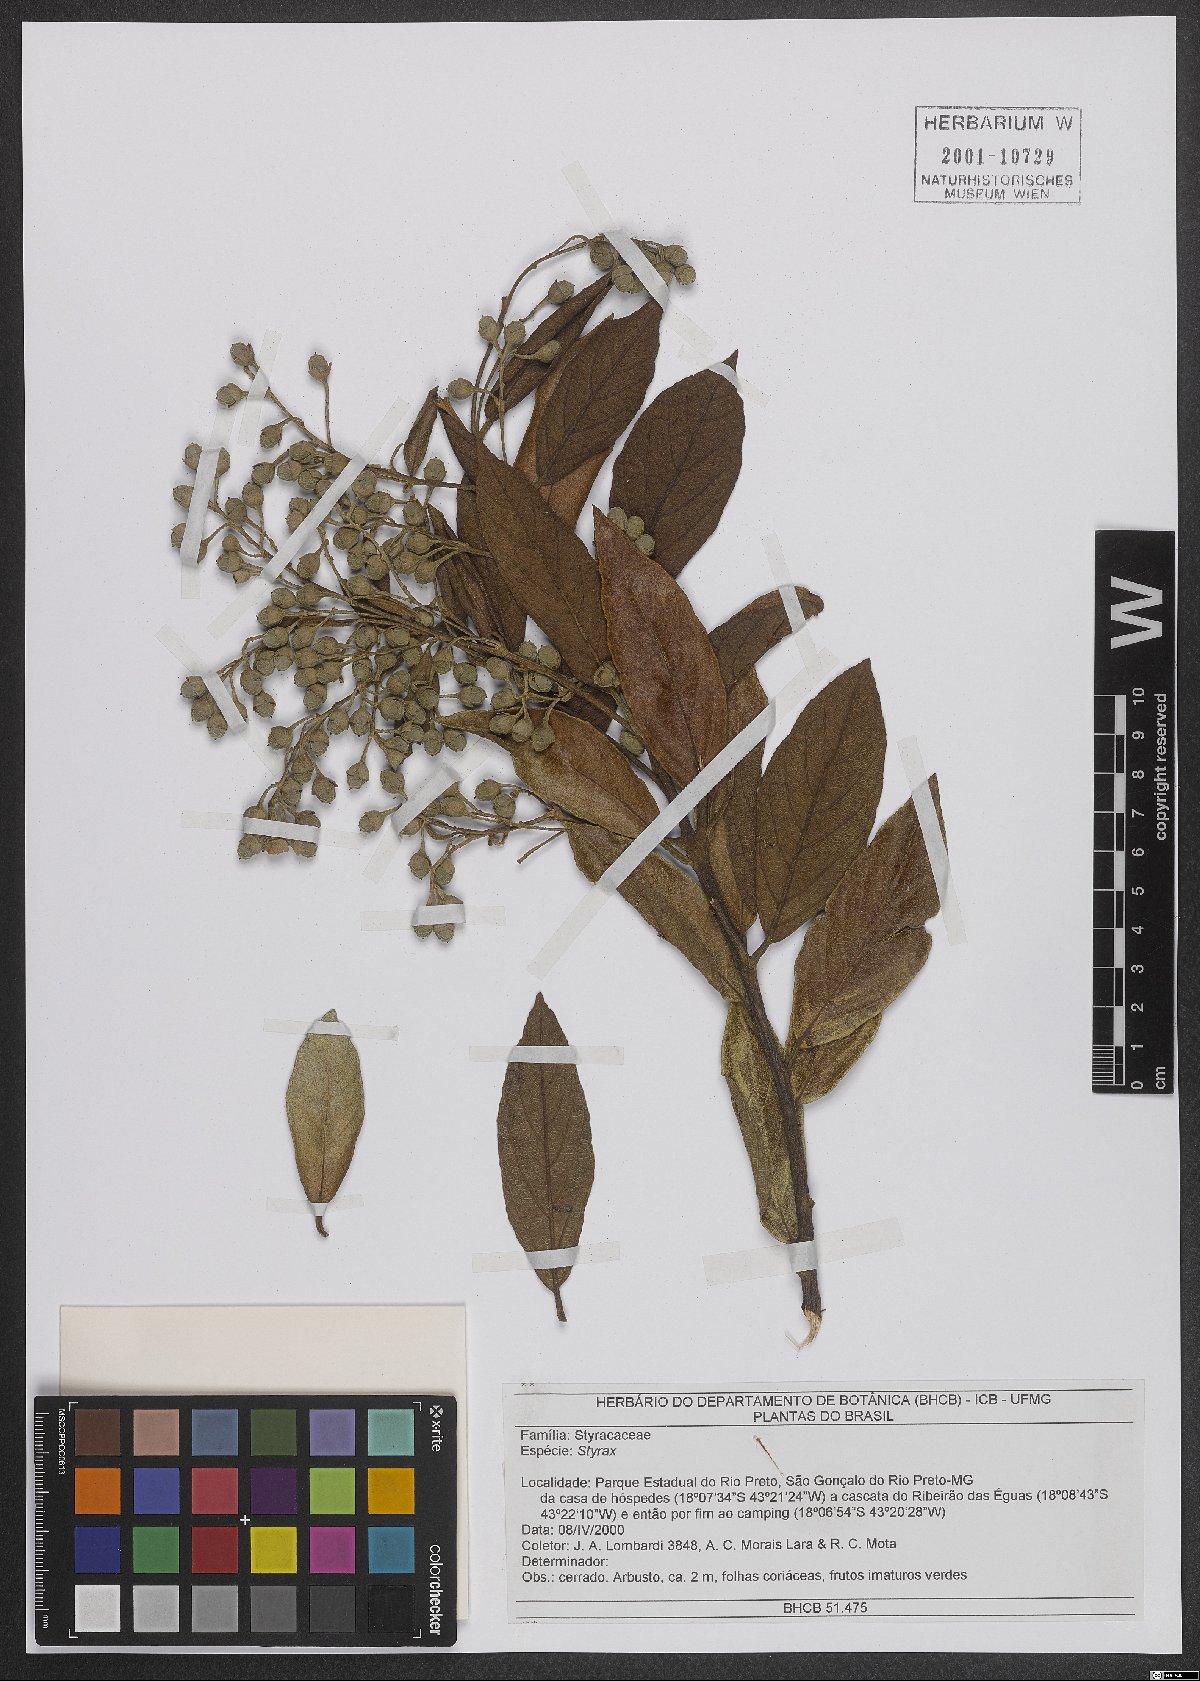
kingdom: Plantae
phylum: Tracheophyta
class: Magnoliopsida
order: Ericales
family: Styracaceae
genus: Styrax
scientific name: Styrax
